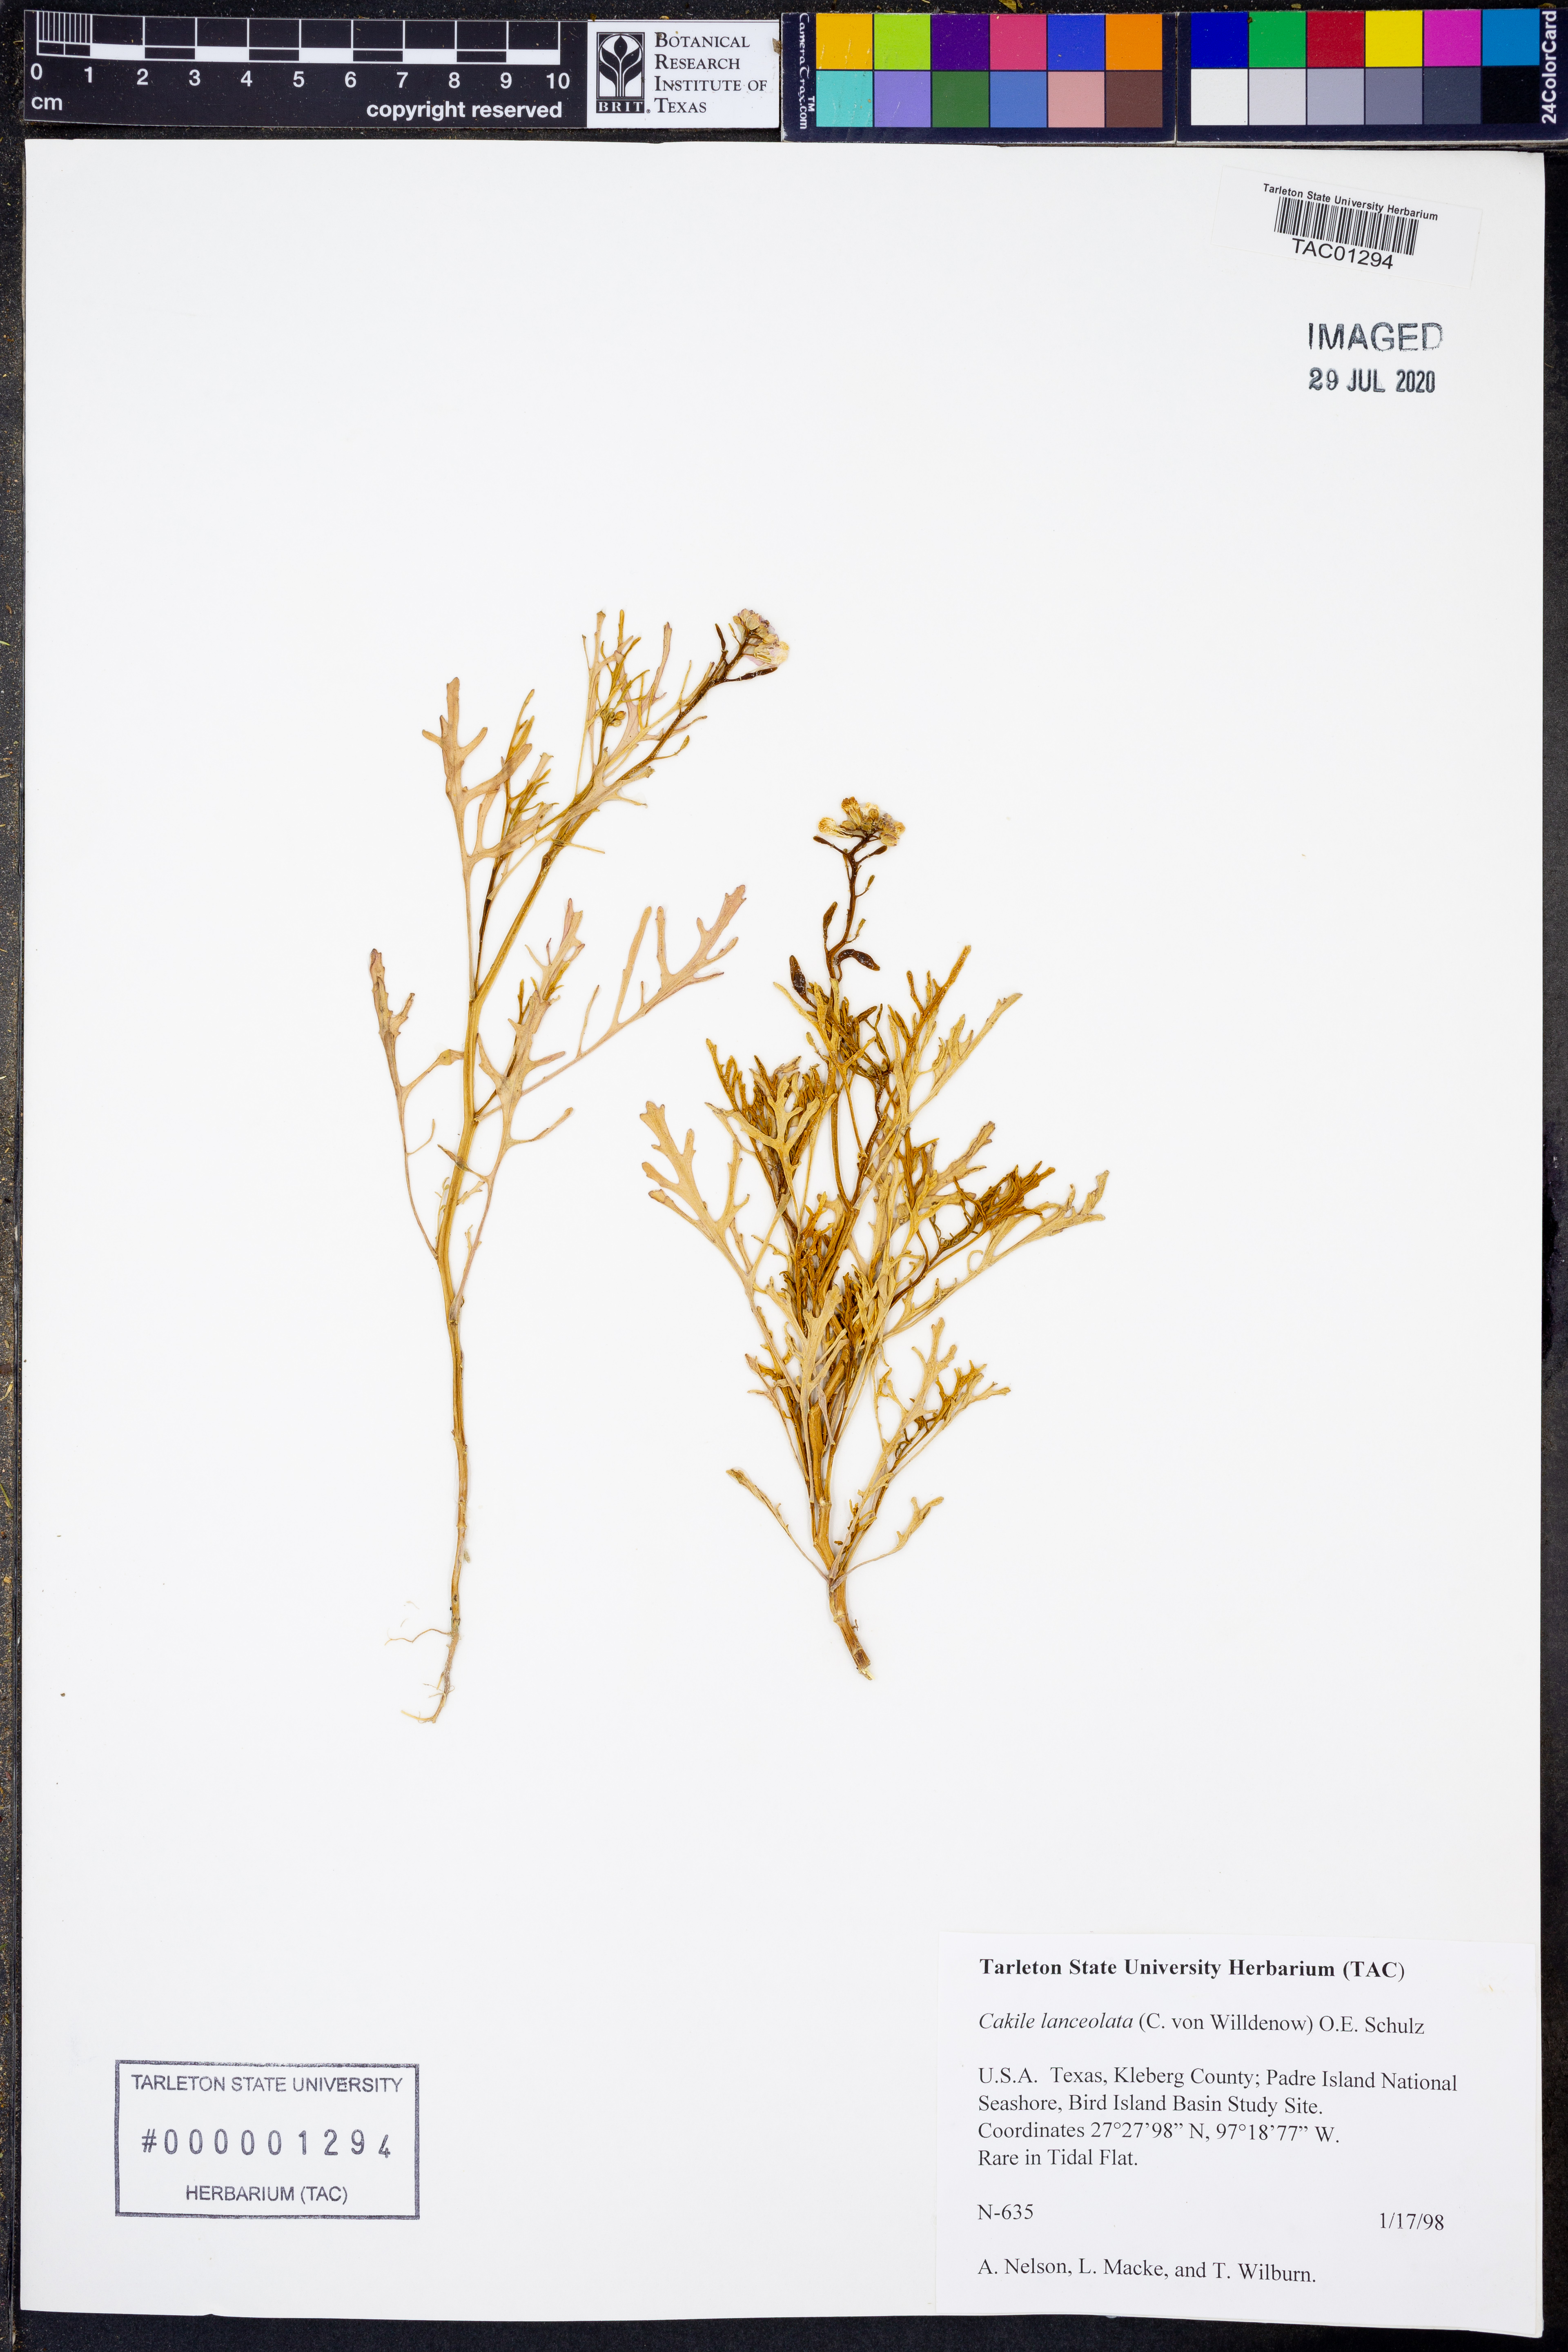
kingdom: Plantae
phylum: Tracheophyta
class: Magnoliopsida
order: Brassicales
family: Brassicaceae
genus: Cakile
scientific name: Cakile lanceolata
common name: Sea rocket
